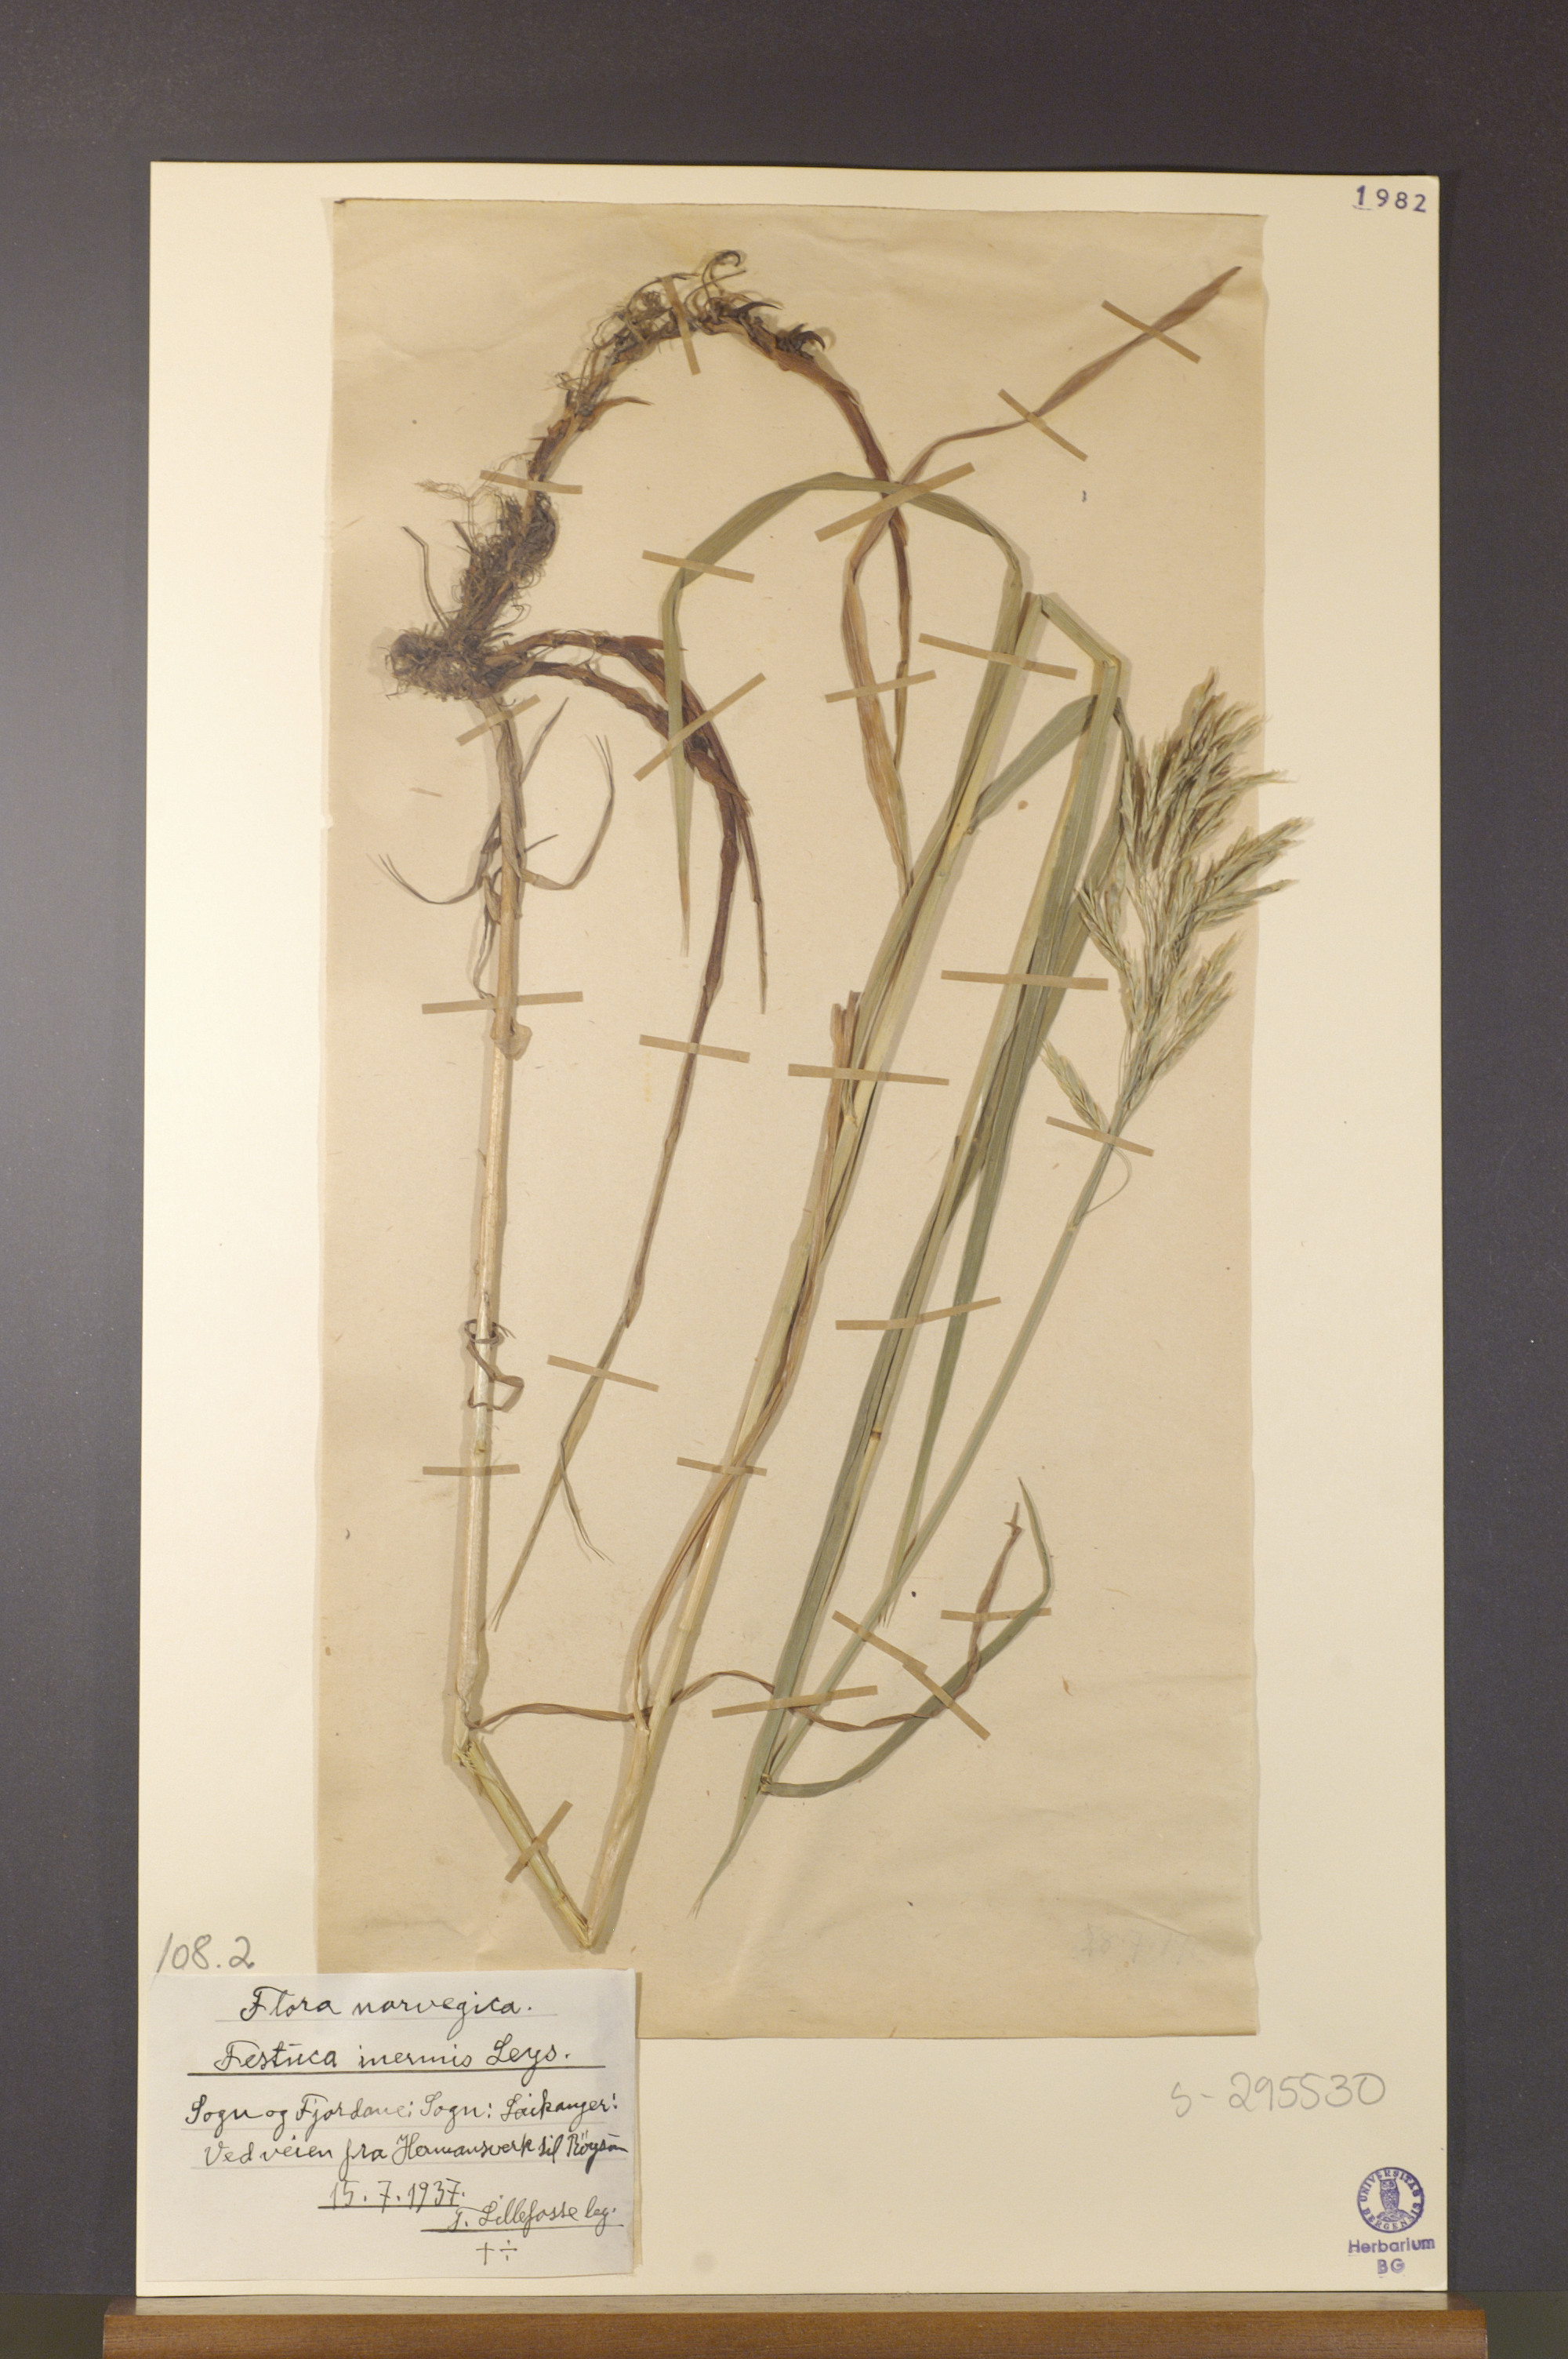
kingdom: Plantae
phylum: Tracheophyta
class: Liliopsida
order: Poales
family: Poaceae
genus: Bromus
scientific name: Bromus inermis
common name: Smooth brome
